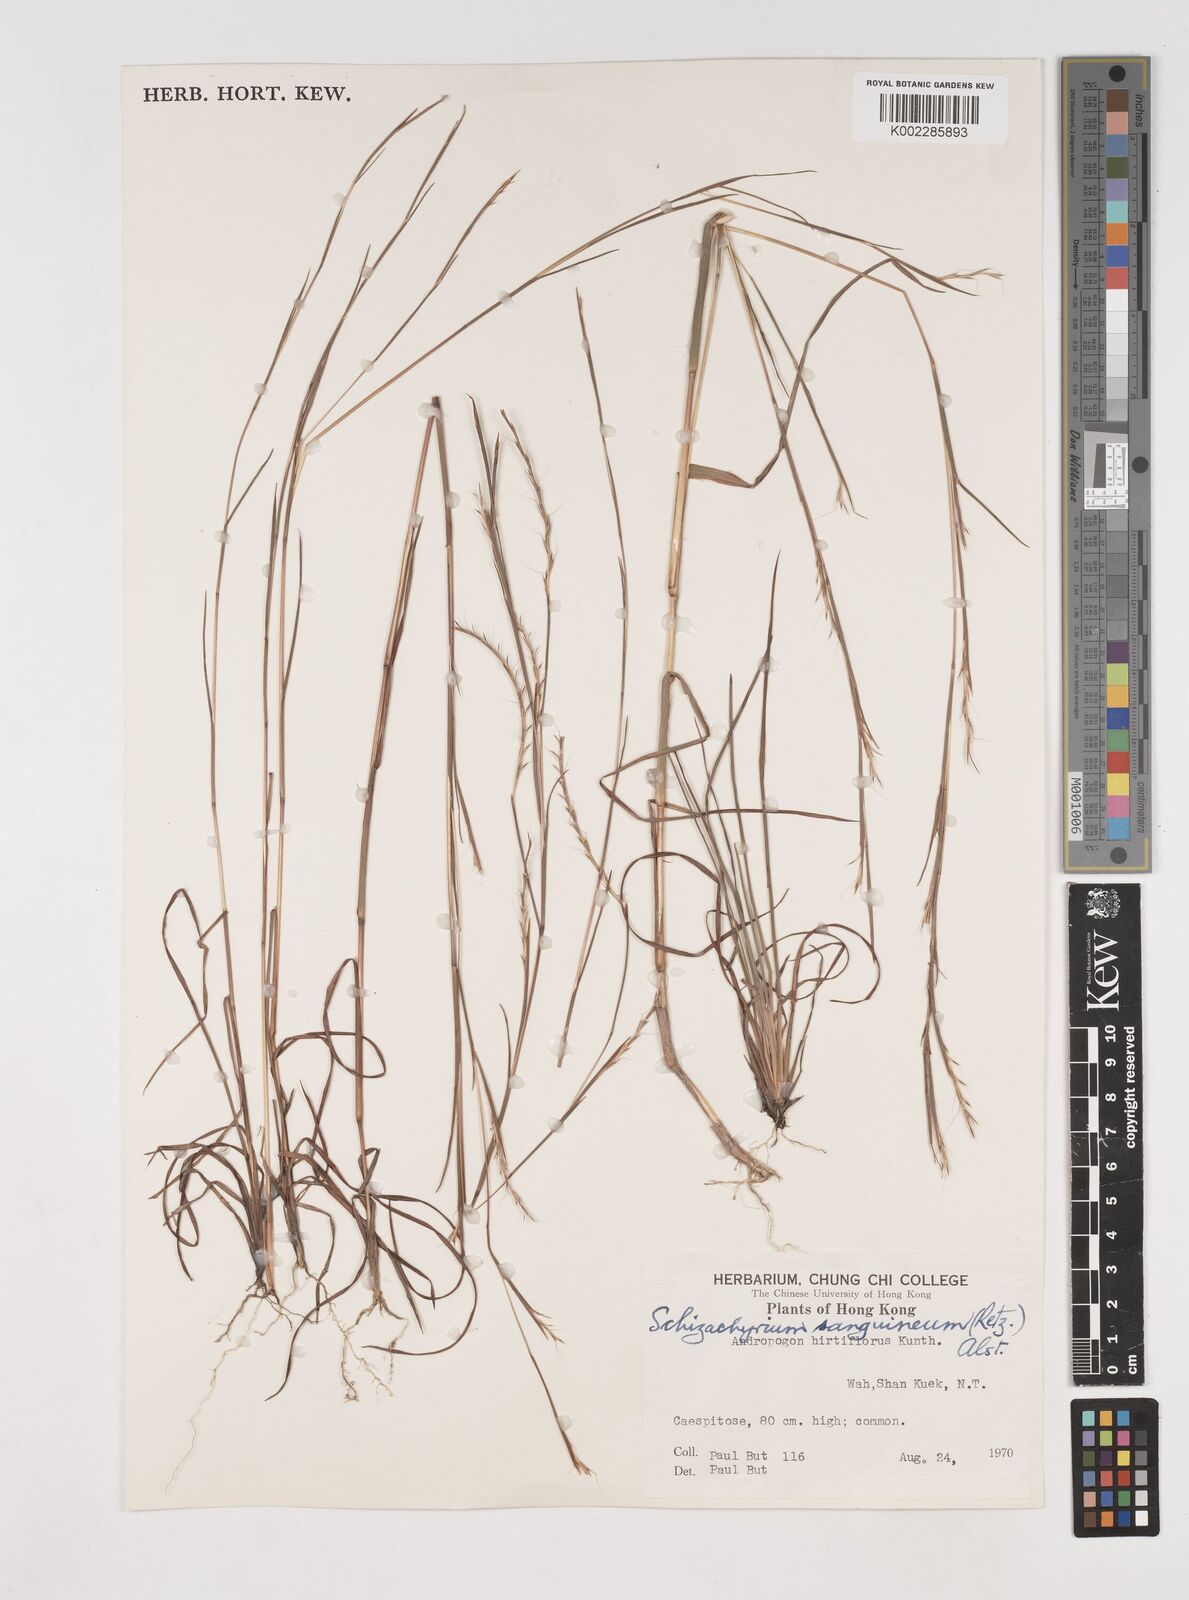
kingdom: Plantae
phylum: Tracheophyta
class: Liliopsida
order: Poales
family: Poaceae
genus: Schizachyrium
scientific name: Schizachyrium sanguineum
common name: Crimson bluestem
